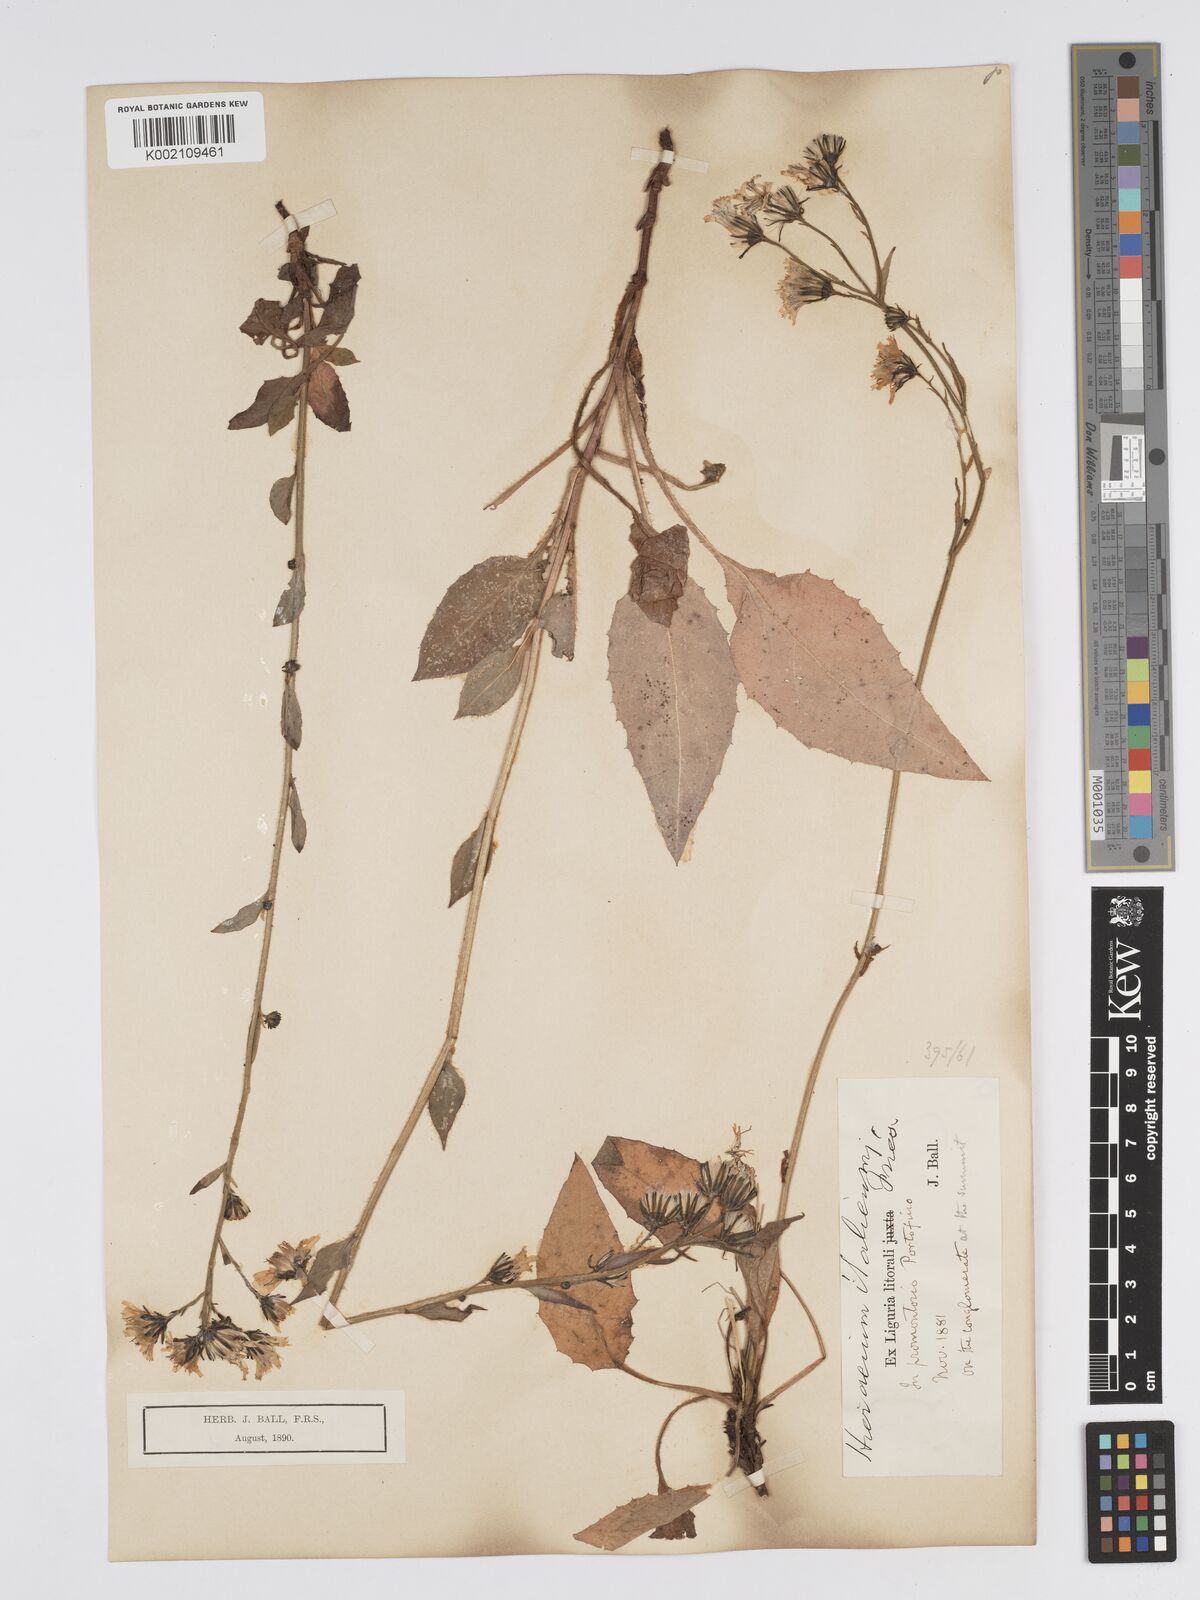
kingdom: Plantae
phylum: Tracheophyta
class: Magnoliopsida
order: Asterales
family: Asteraceae
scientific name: Asteraceae
